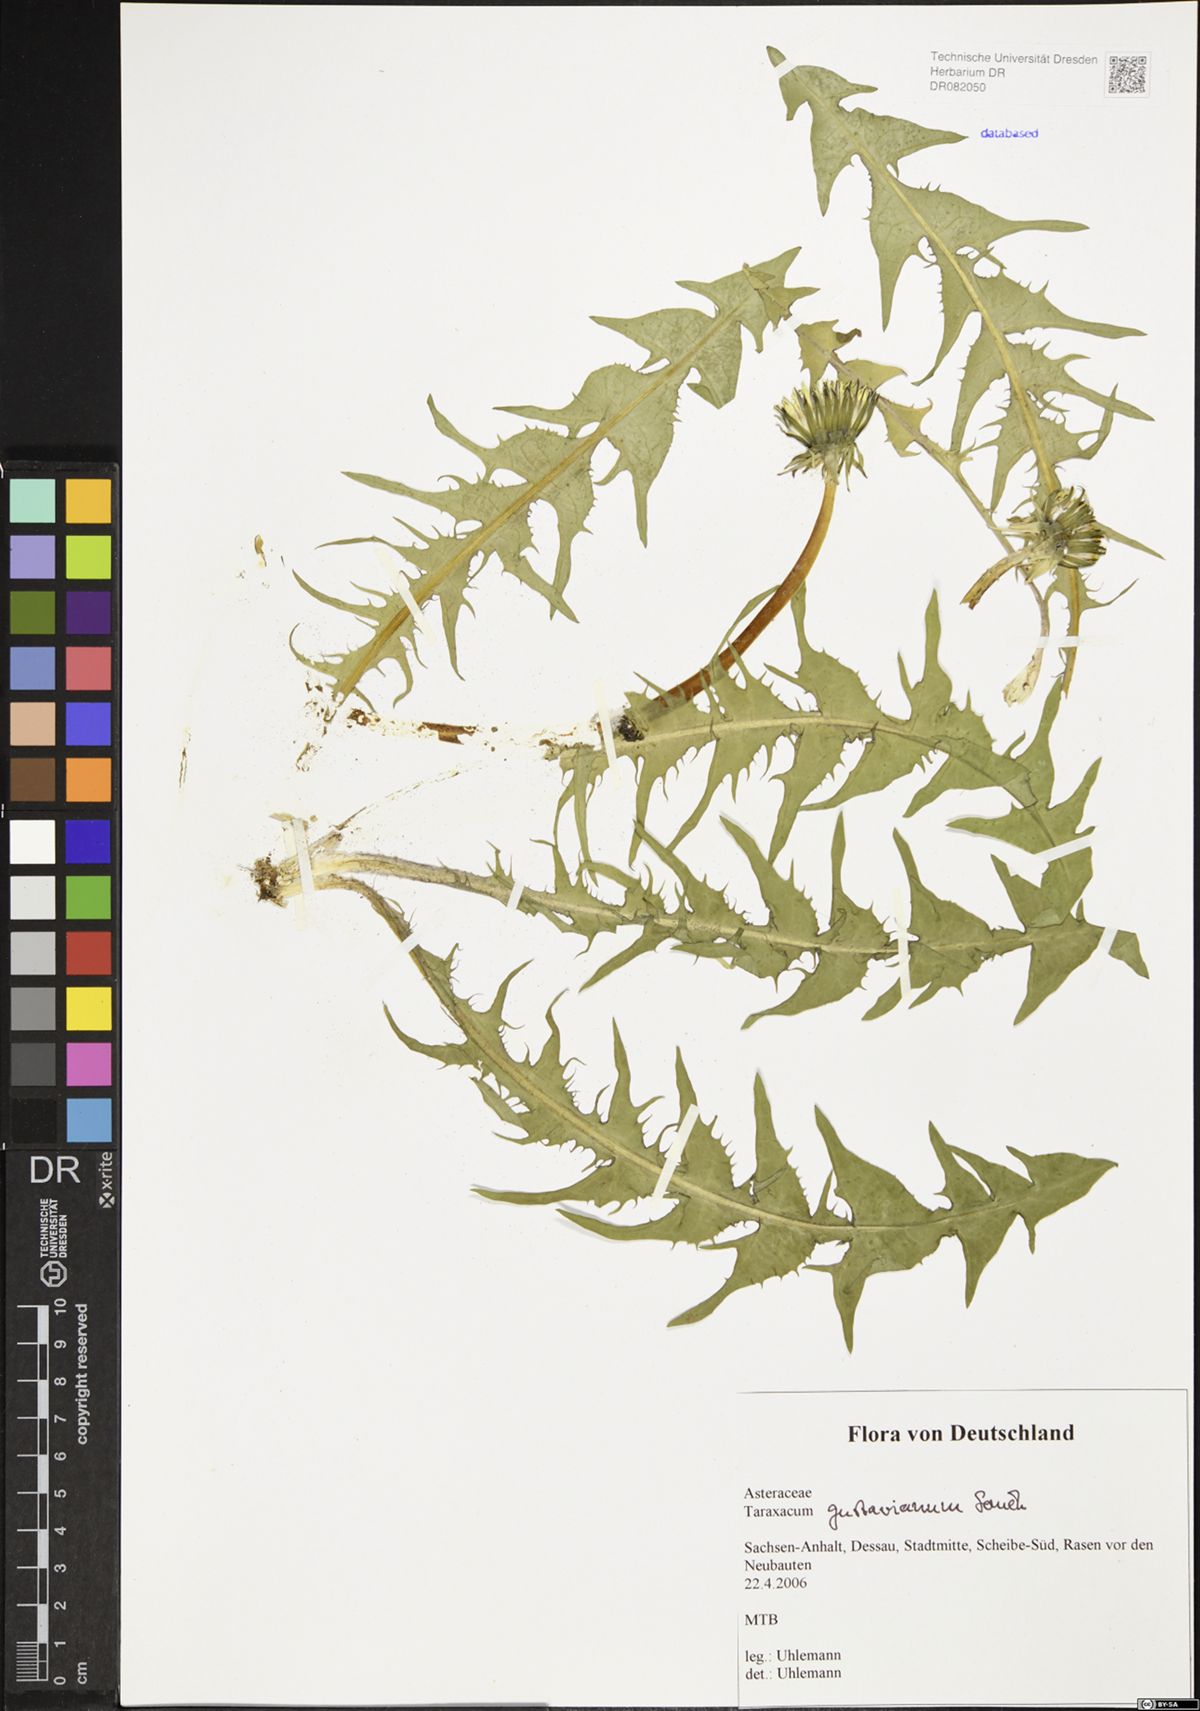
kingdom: Plantae
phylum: Tracheophyta
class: Magnoliopsida
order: Asterales
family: Asteraceae
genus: Taraxacum
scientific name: Taraxacum gustavianum
